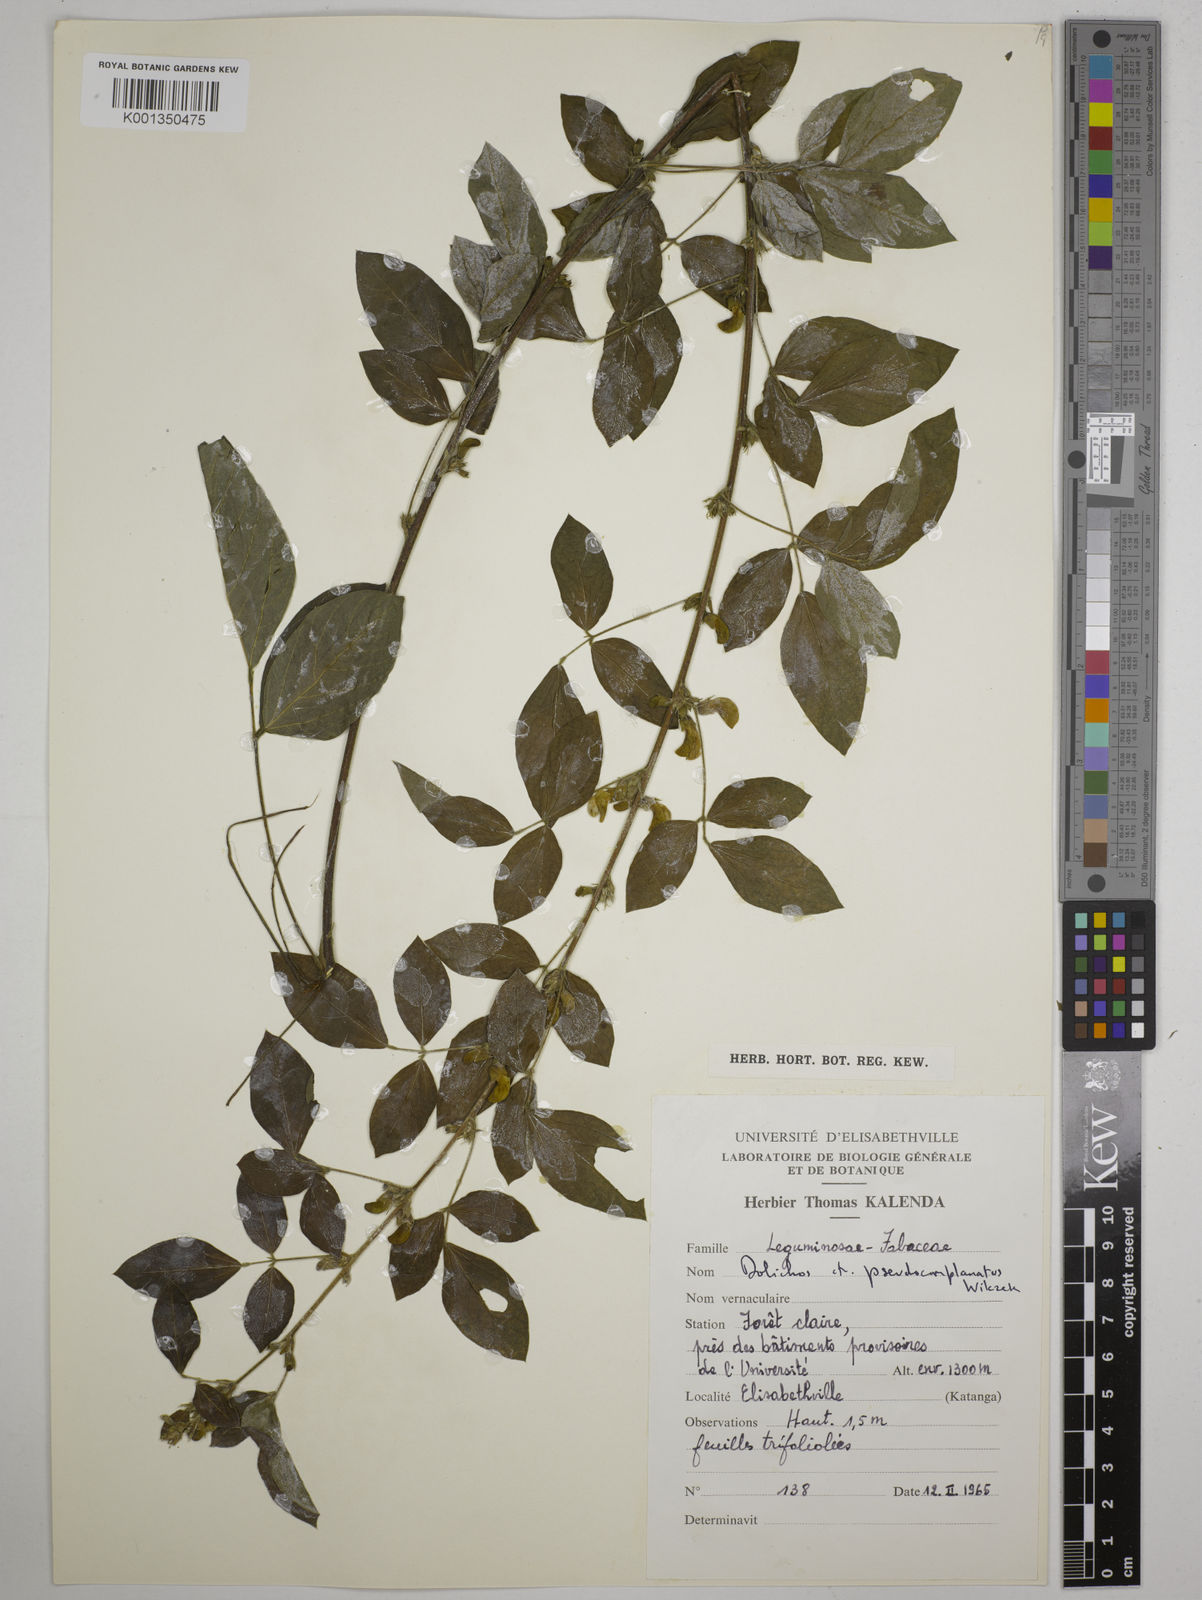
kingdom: Plantae
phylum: Tracheophyta
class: Magnoliopsida
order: Fabales
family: Fabaceae
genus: Dolichos
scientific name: Dolichos pseudocomplanatus
